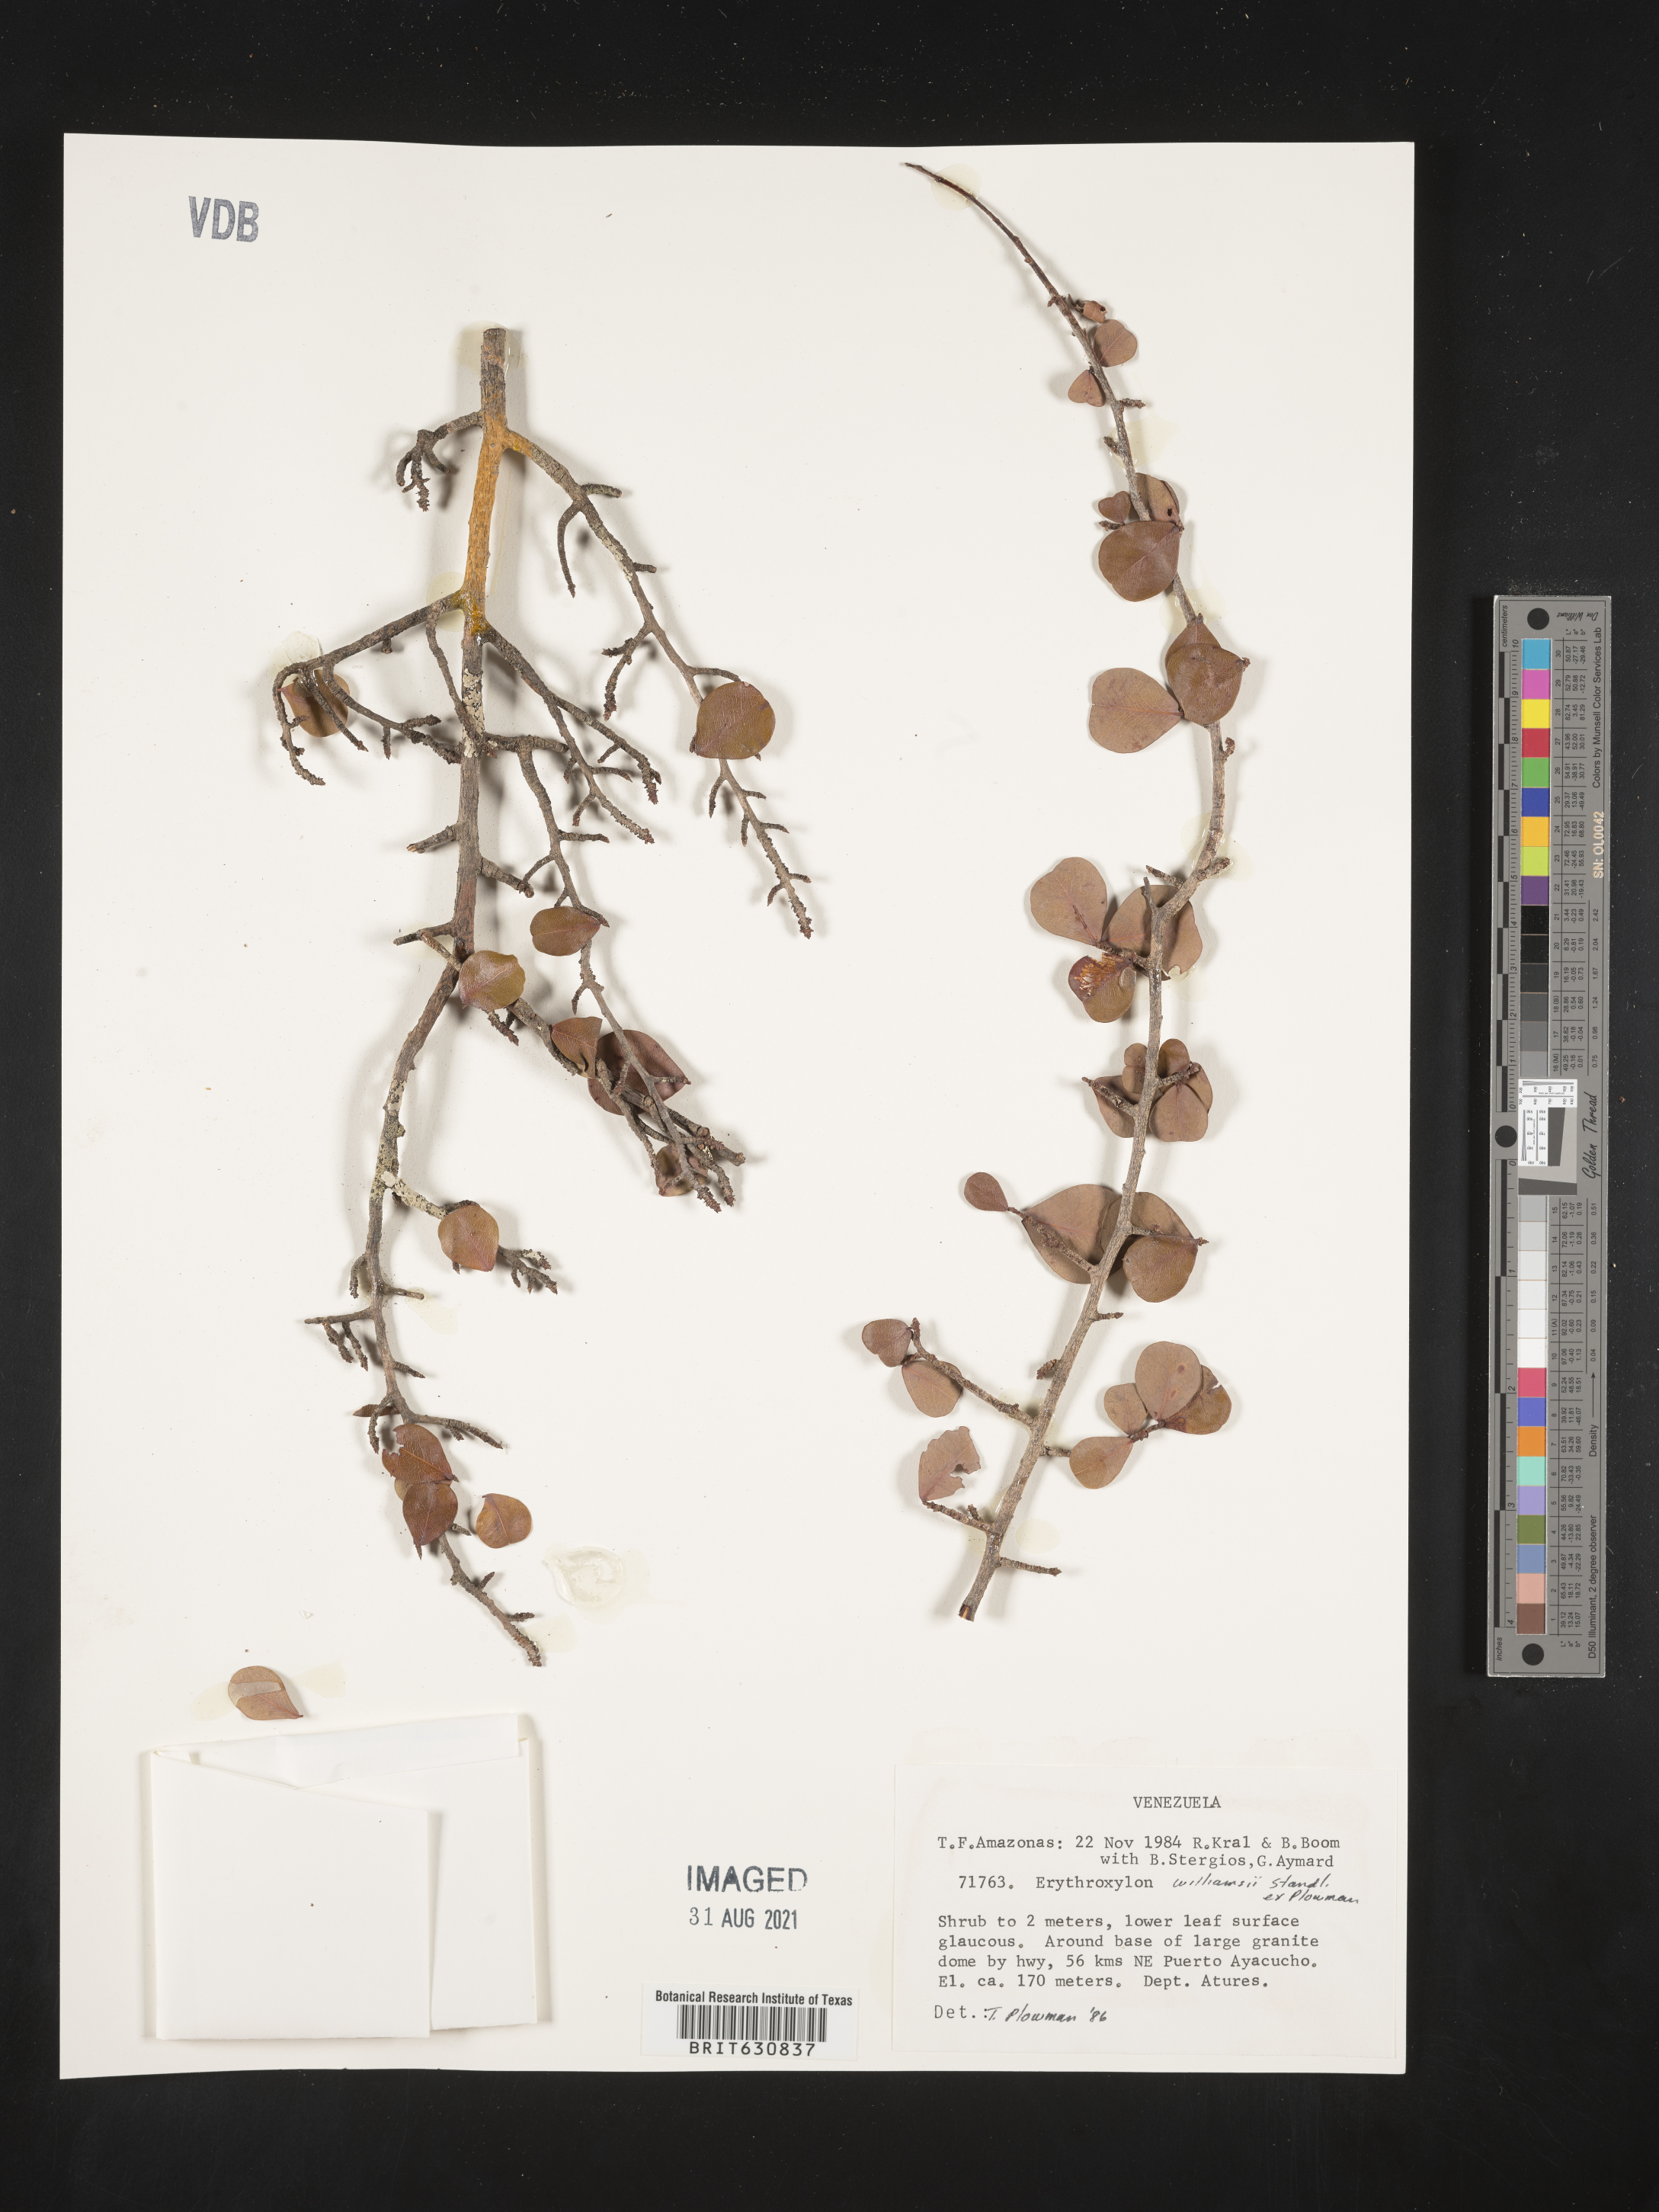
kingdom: Plantae
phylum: Tracheophyta
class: Magnoliopsida
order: Malpighiales
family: Erythroxylaceae
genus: Erythroxylum
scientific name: Erythroxylum
